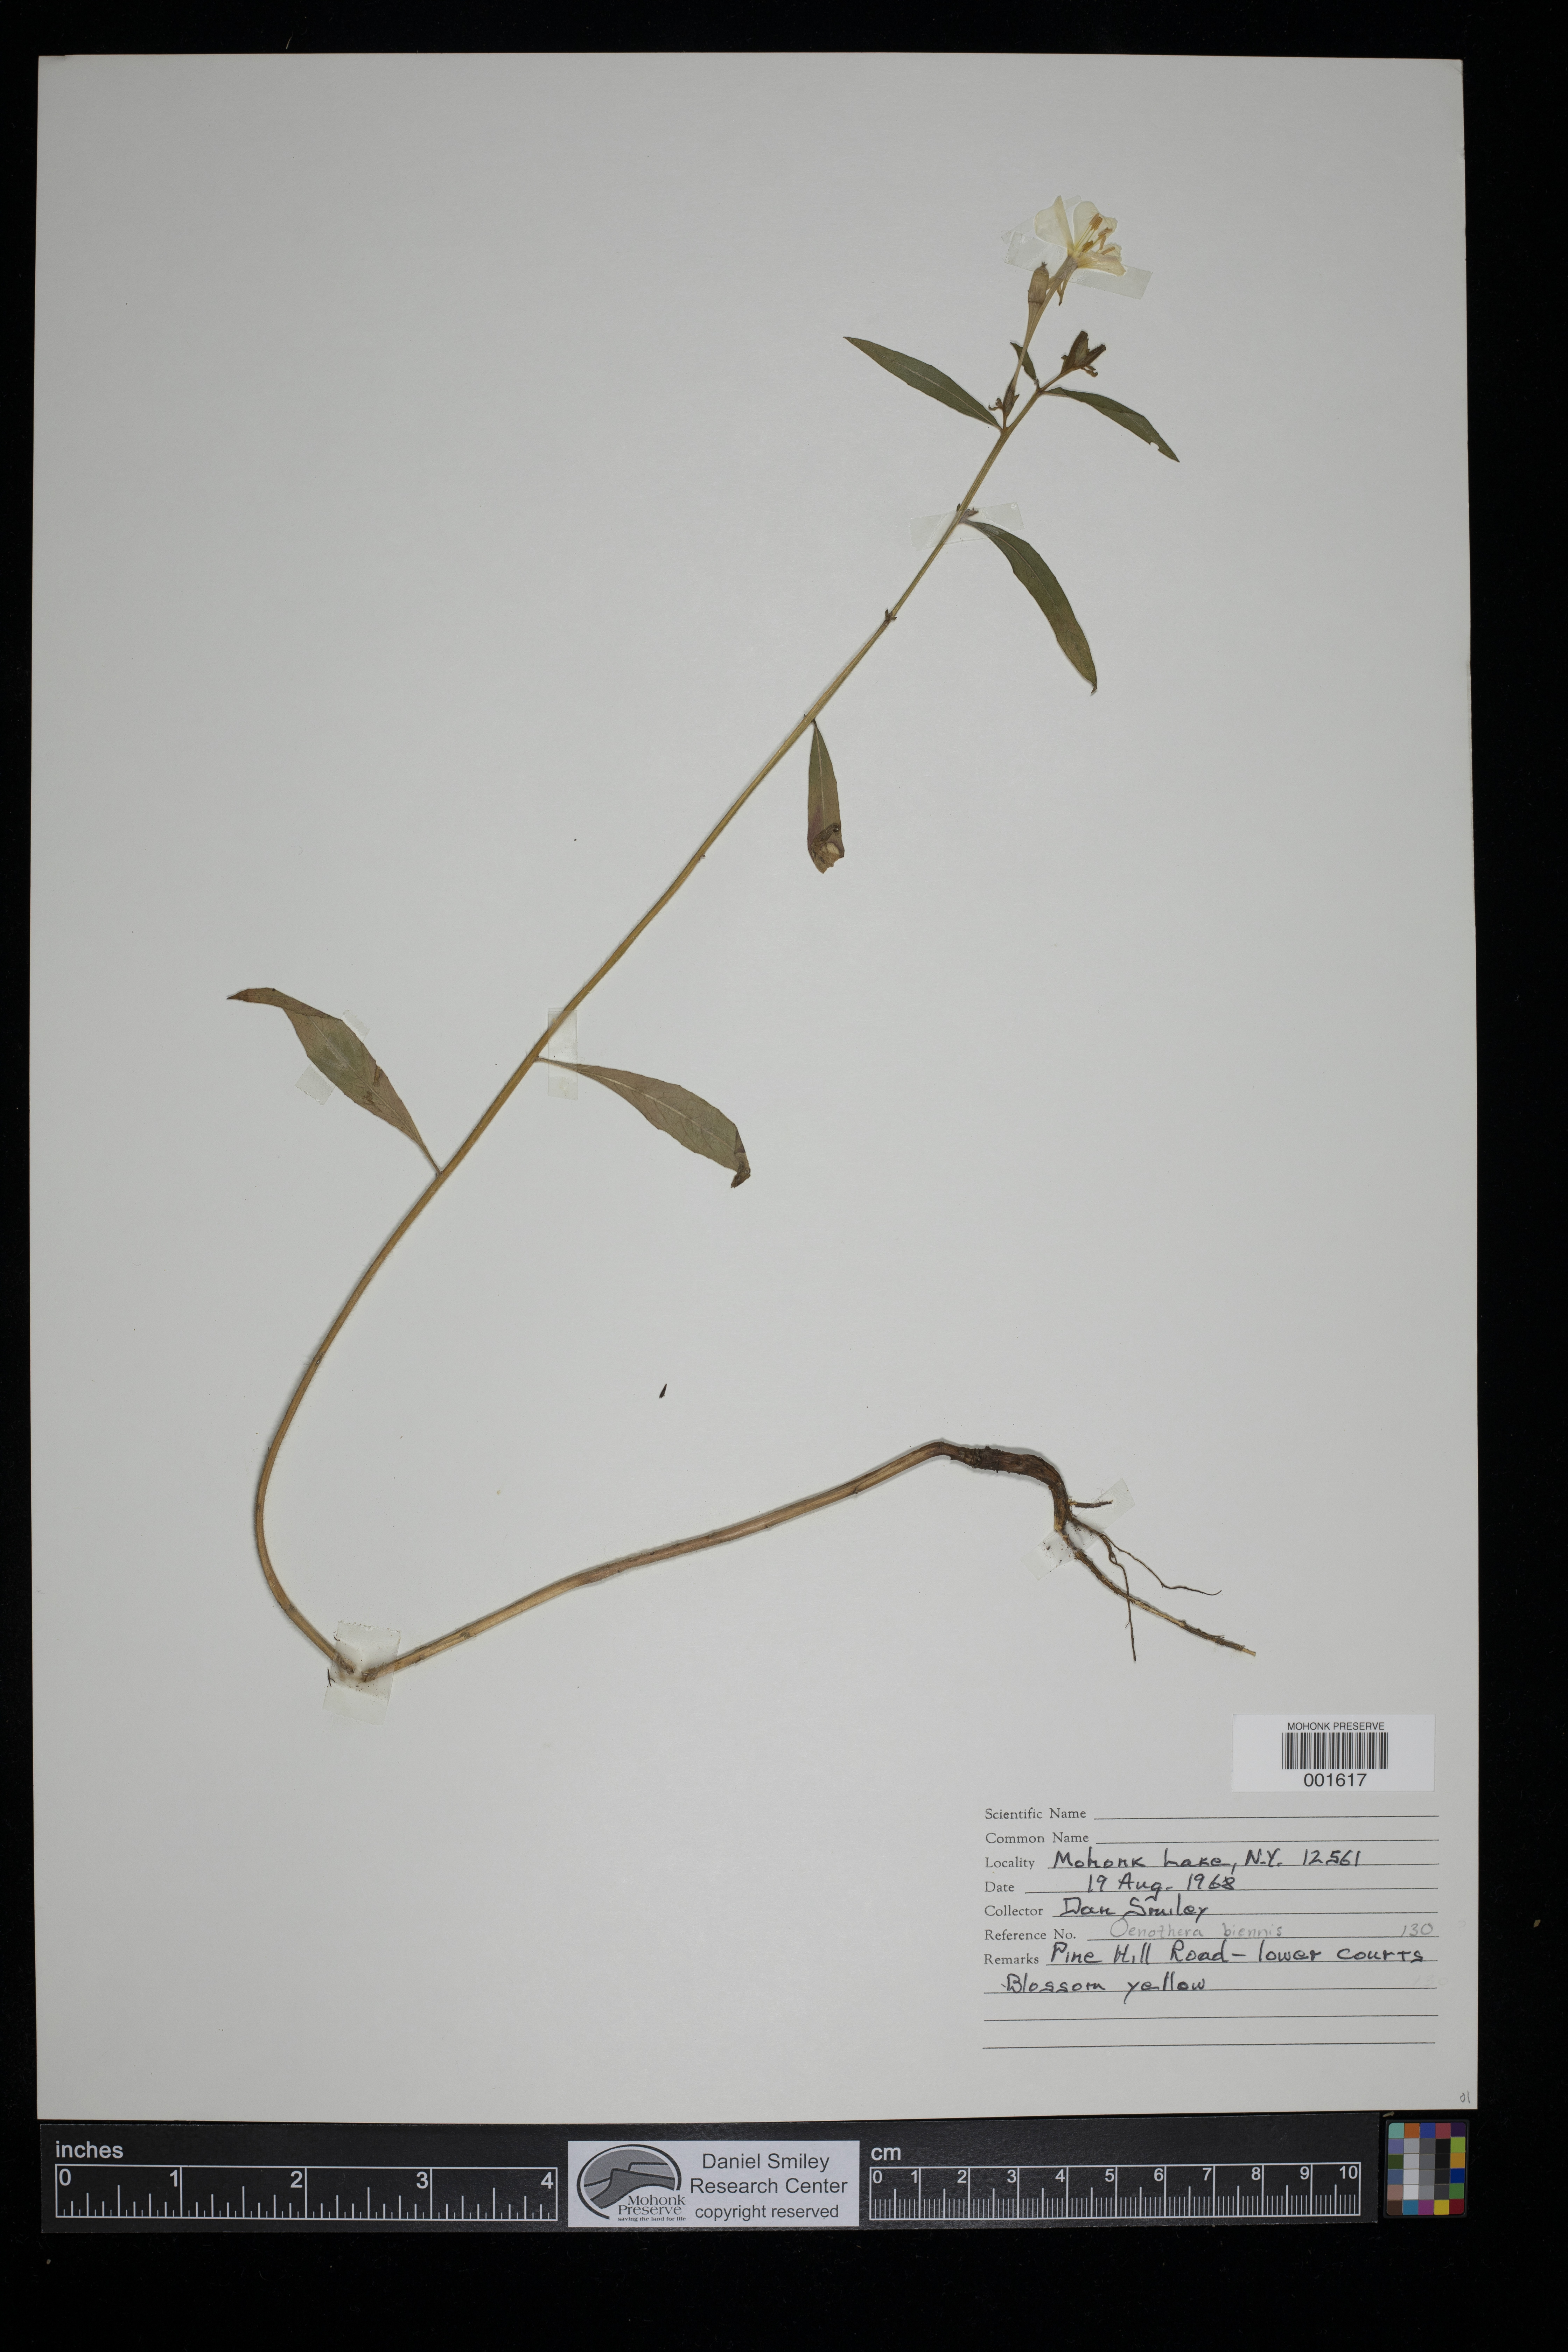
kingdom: Plantae
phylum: Tracheophyta
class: Magnoliopsida
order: Myrtales
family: Onagraceae
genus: Oenothera
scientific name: Oenothera biennis
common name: Common evening-primrose
